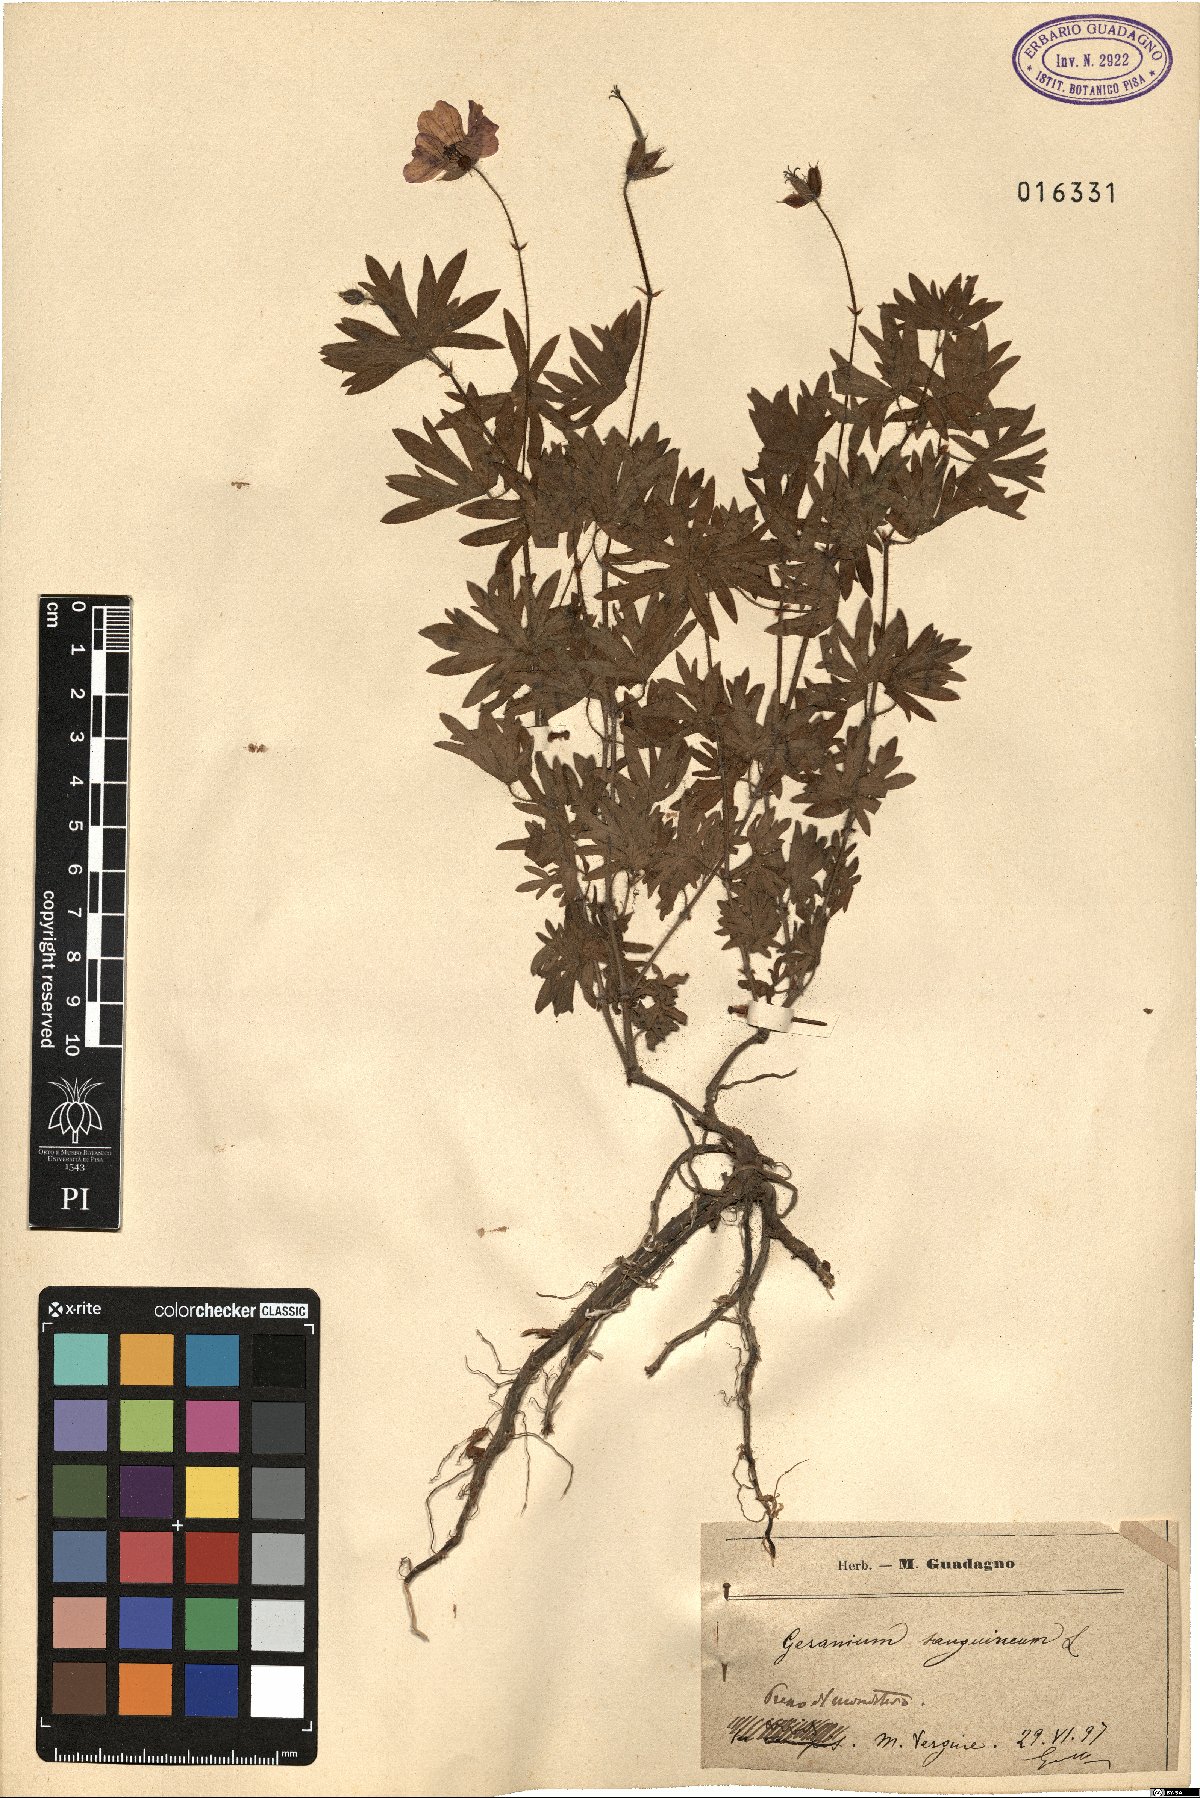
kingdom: Plantae
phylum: Tracheophyta
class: Magnoliopsida
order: Geraniales
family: Geraniaceae
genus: Geranium
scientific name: Geranium sanguineum
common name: Bloody crane's-bill
